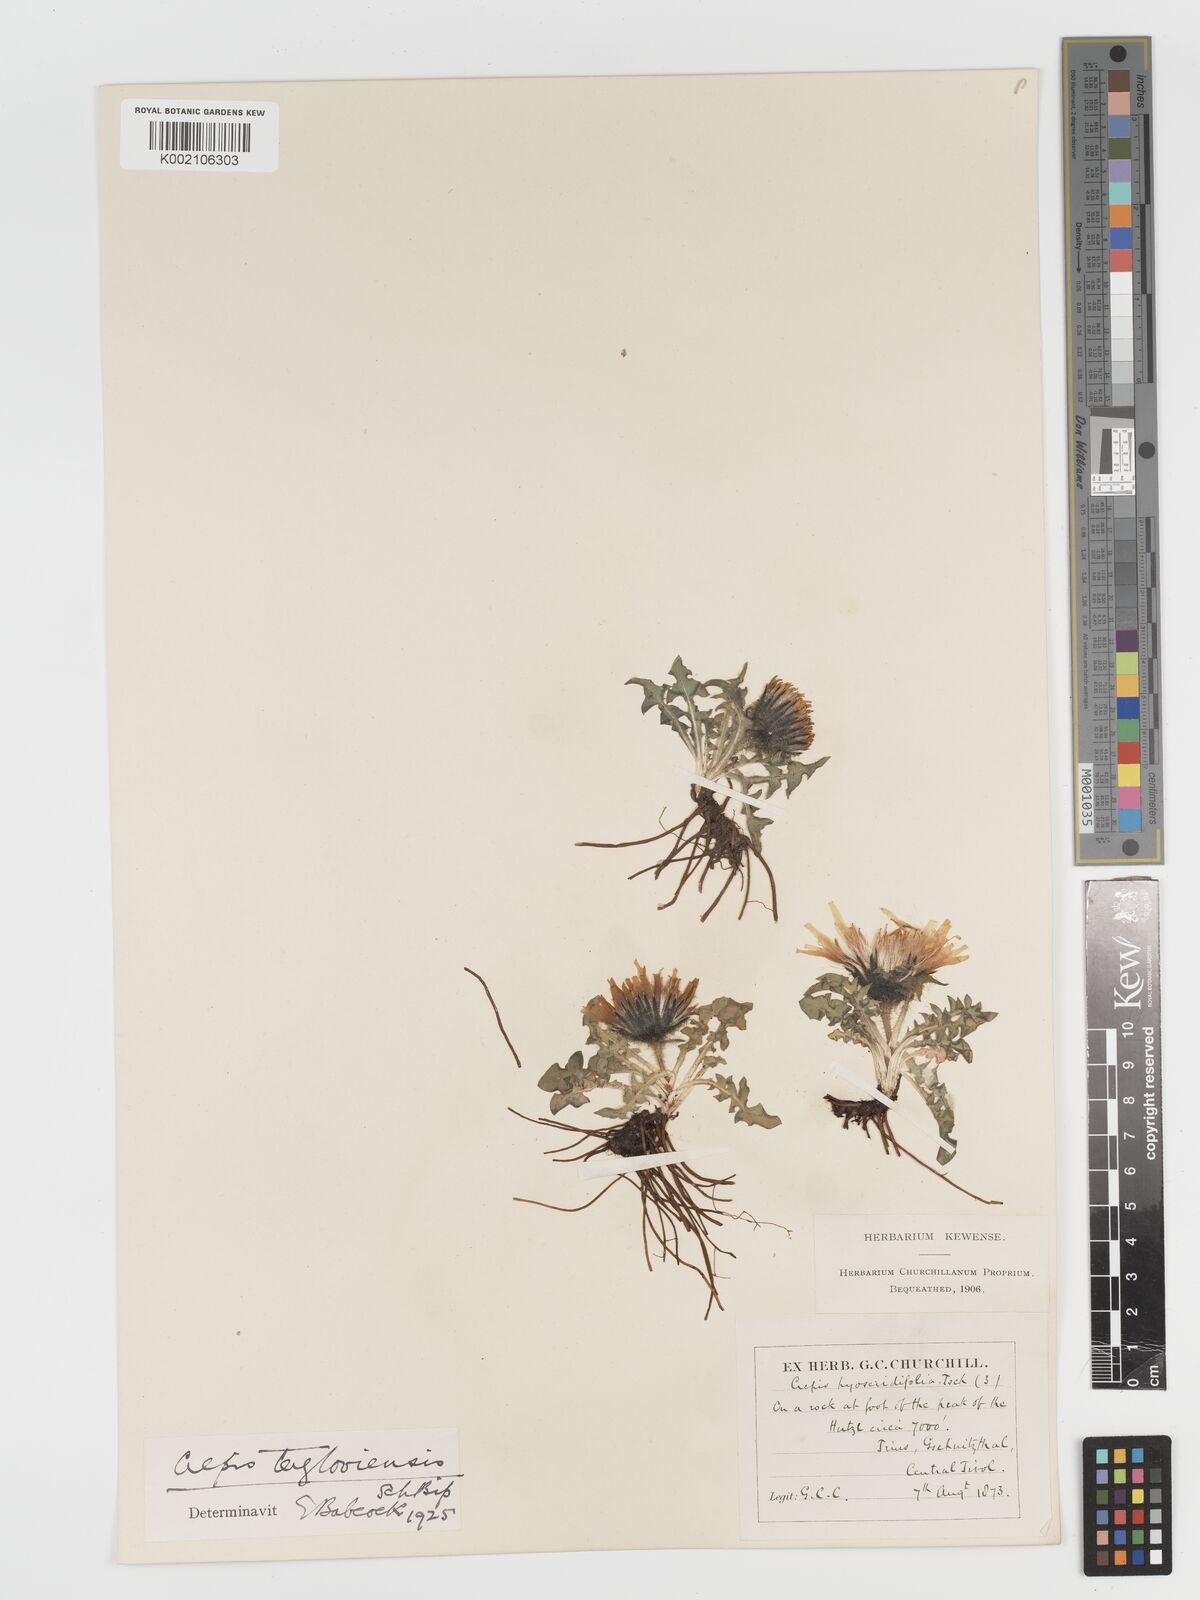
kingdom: Plantae
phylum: Tracheophyta
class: Magnoliopsida
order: Asterales
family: Asteraceae
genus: Crepis
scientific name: Crepis terglouensis
